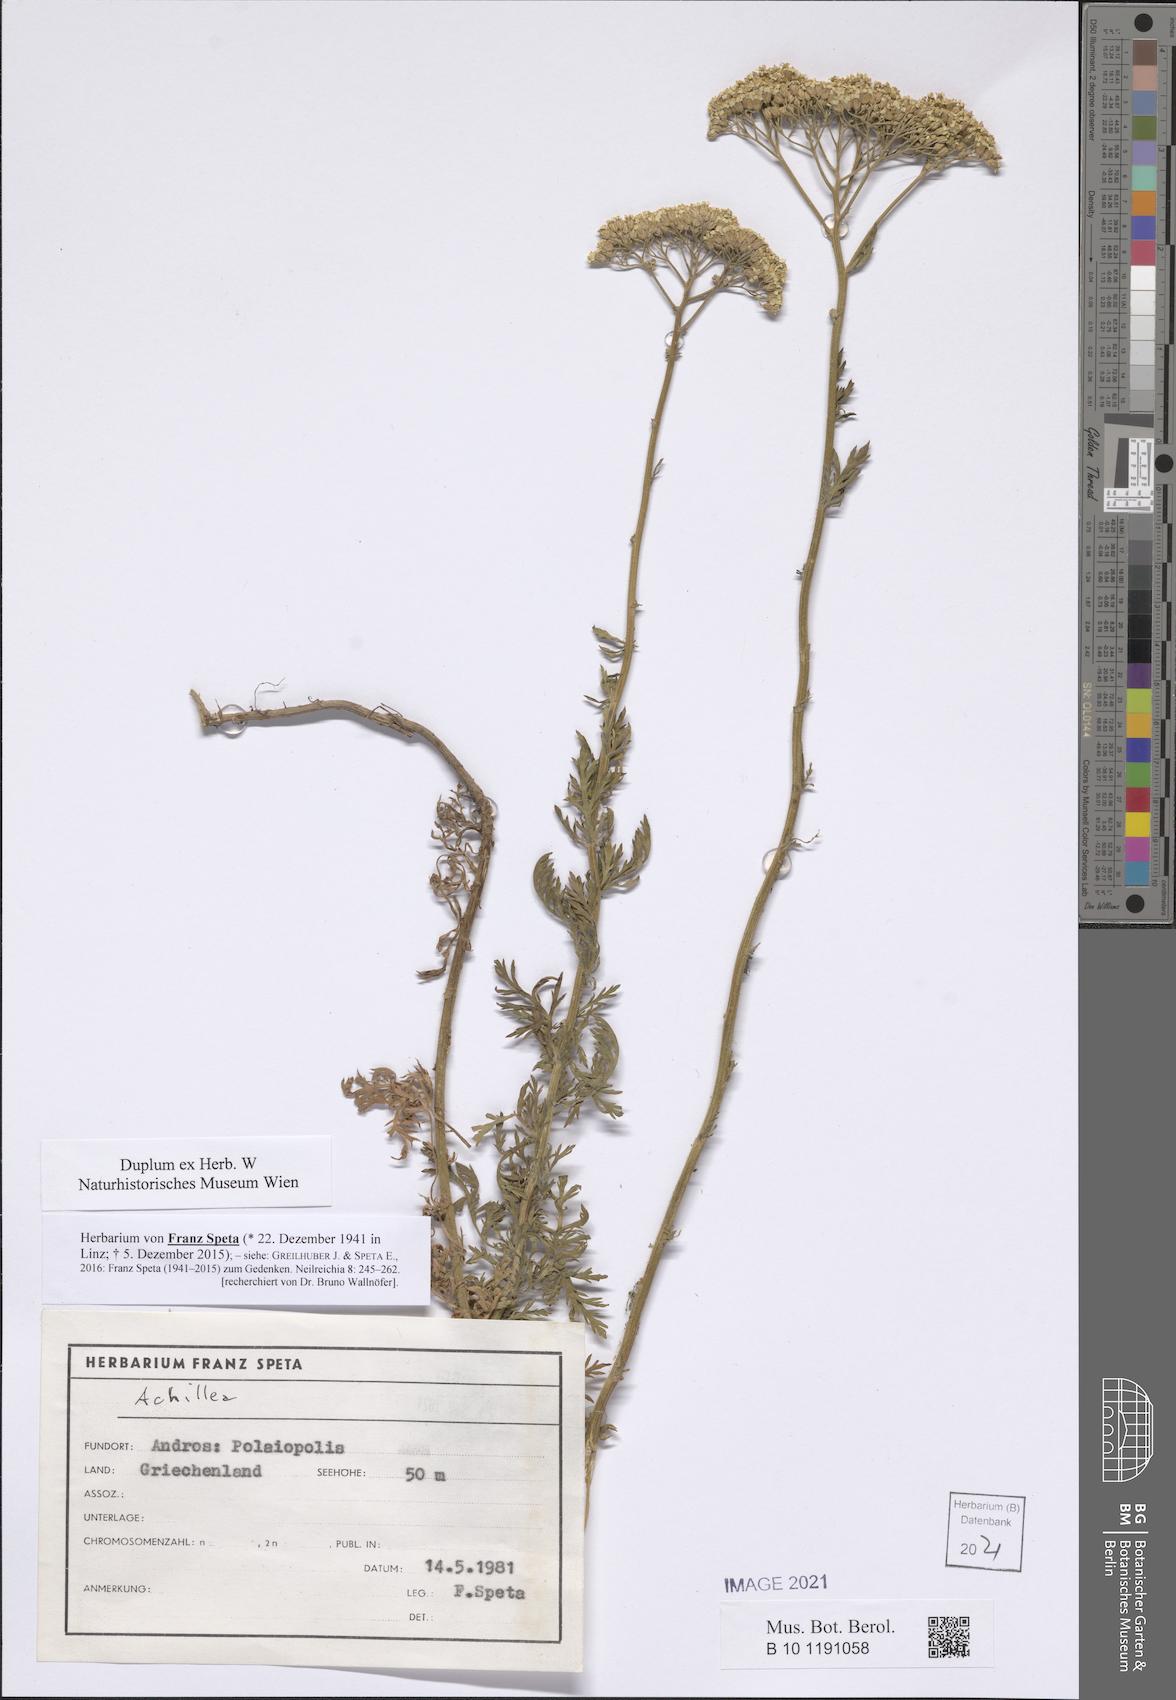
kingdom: Plantae
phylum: Tracheophyta
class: Magnoliopsida
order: Asterales
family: Asteraceae
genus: Achillea
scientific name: Achillea
